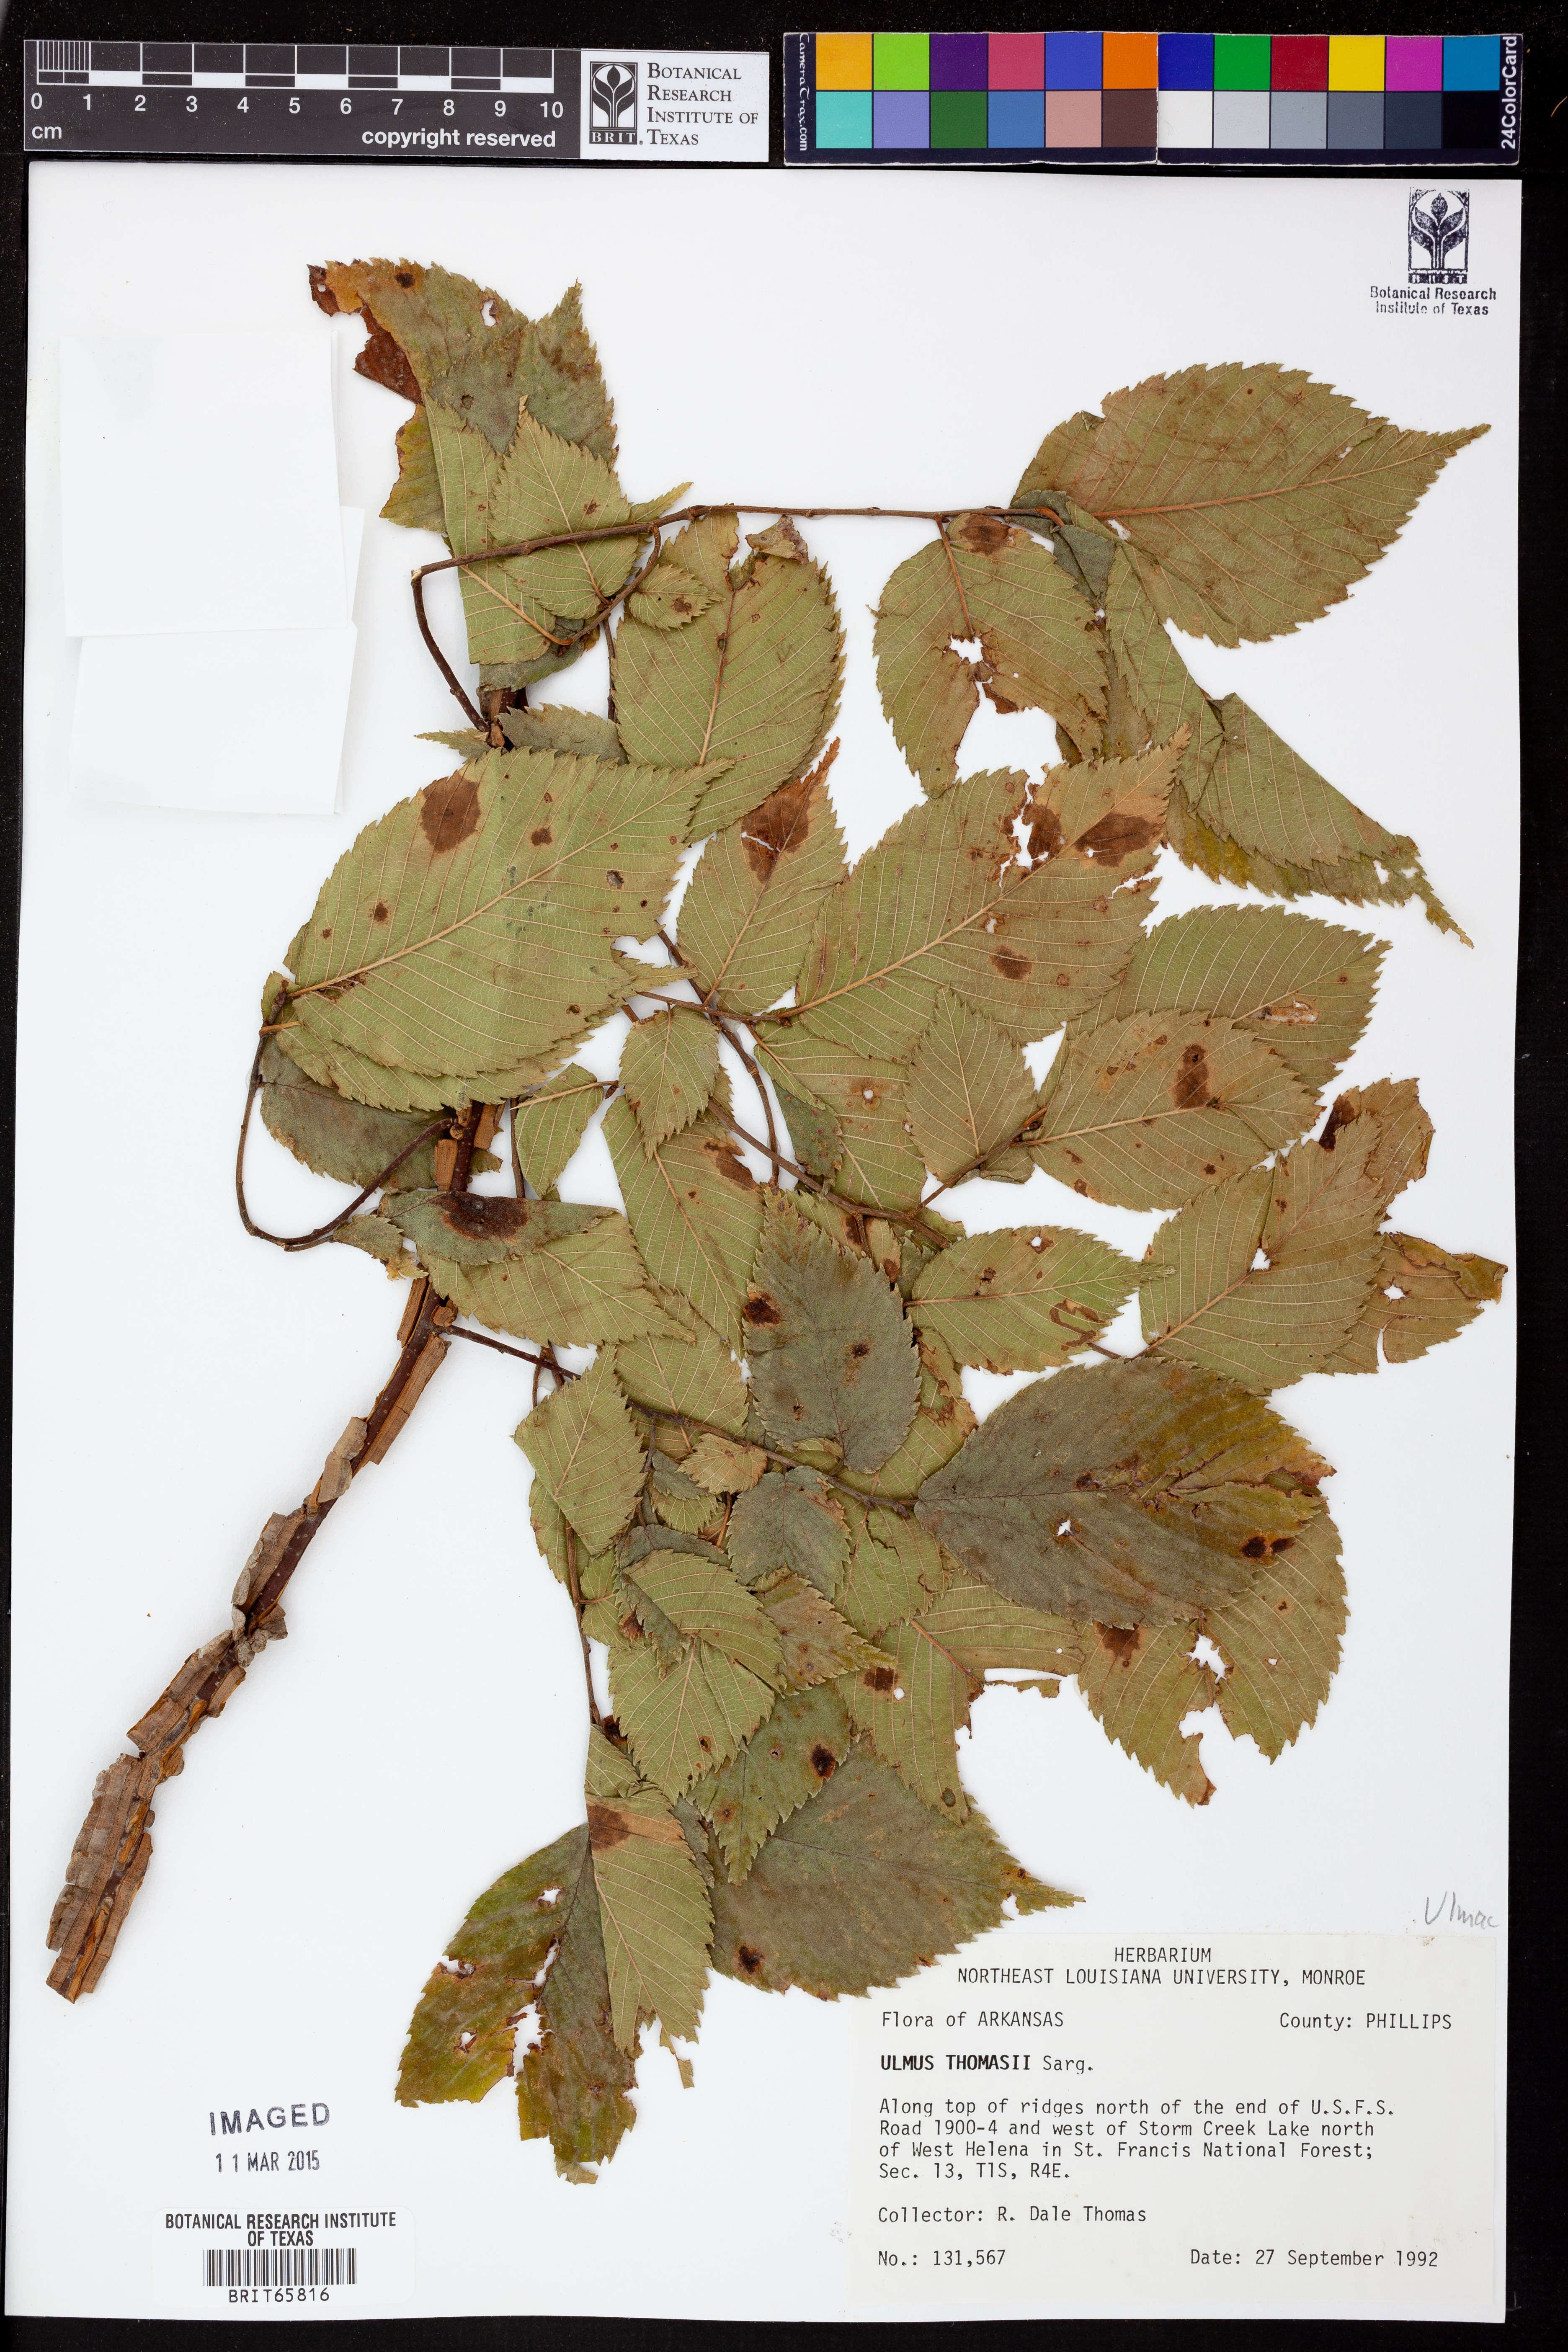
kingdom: Plantae
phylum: Tracheophyta
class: Magnoliopsida
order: Rosales
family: Ulmaceae
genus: Ulmus
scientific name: Ulmus thomasii
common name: Rock elm
